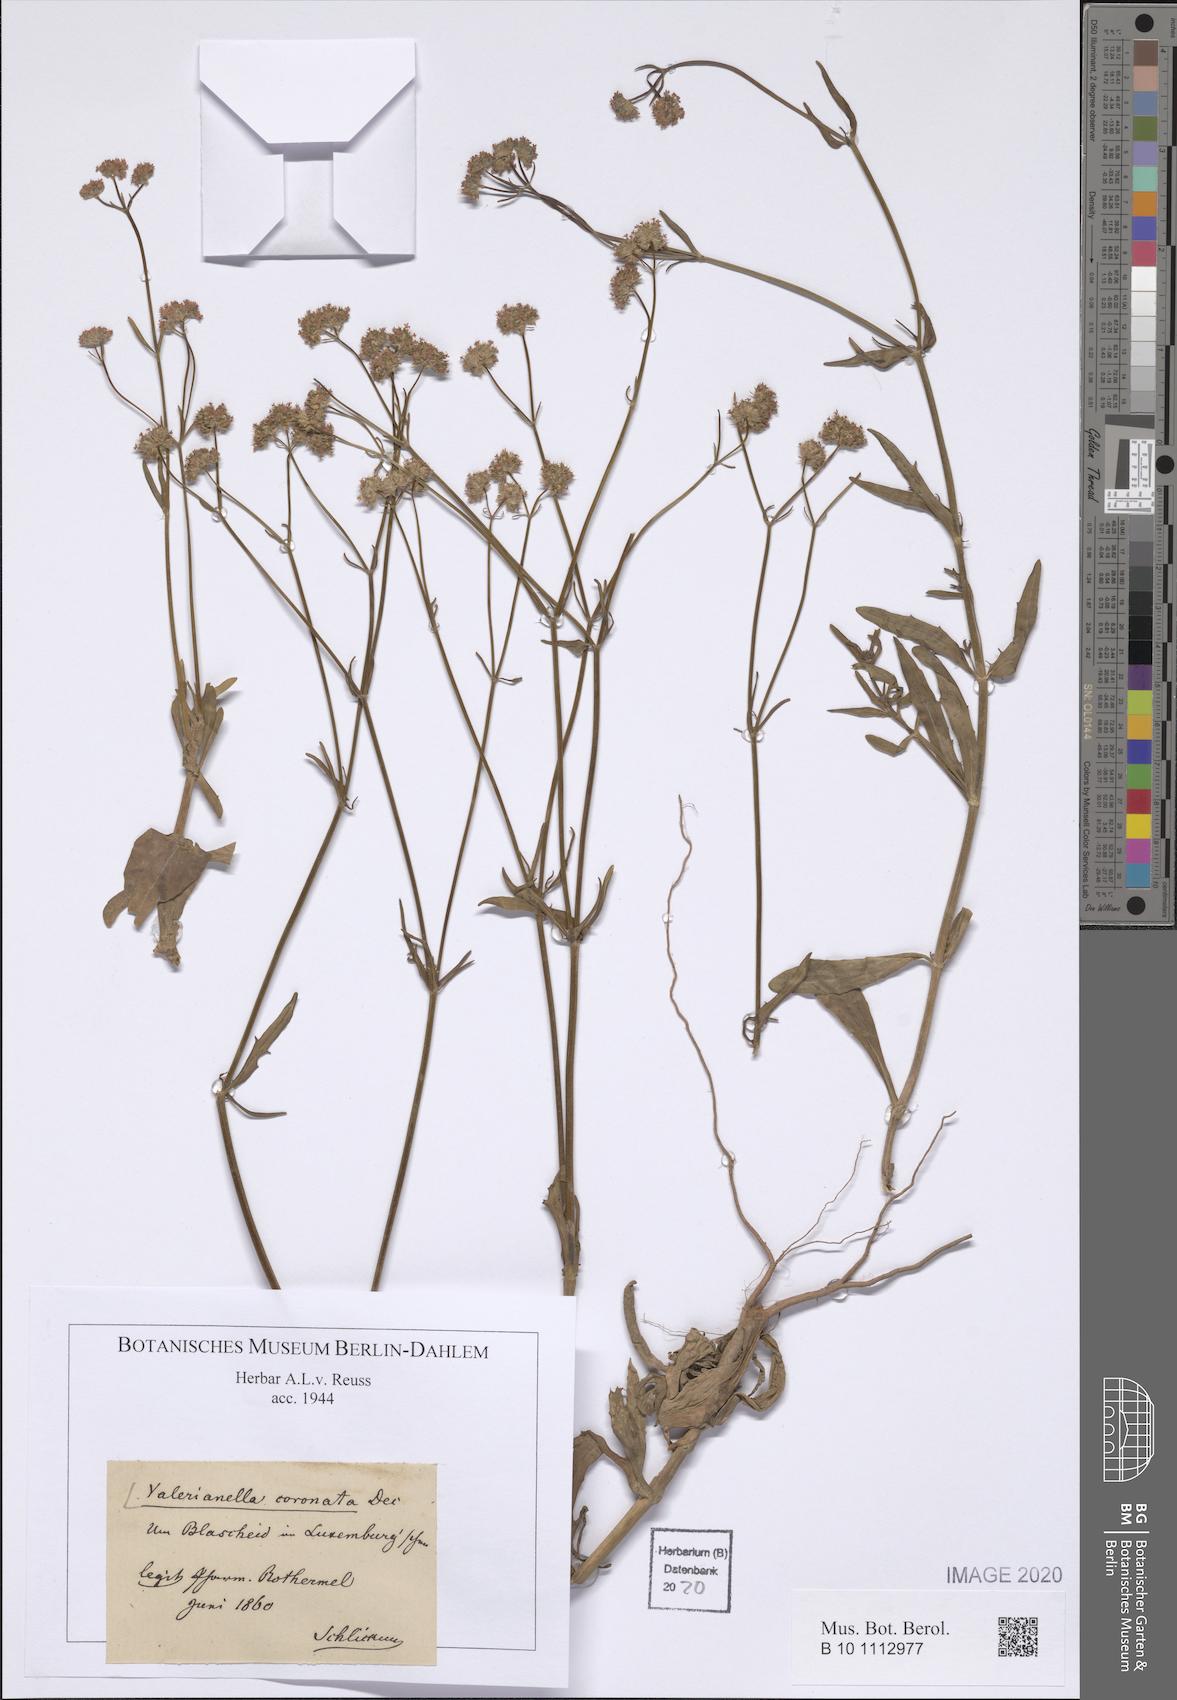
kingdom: Plantae
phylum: Tracheophyta
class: Magnoliopsida
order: Dipsacales
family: Caprifoliaceae
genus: Valerianella
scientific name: Valerianella coronata
